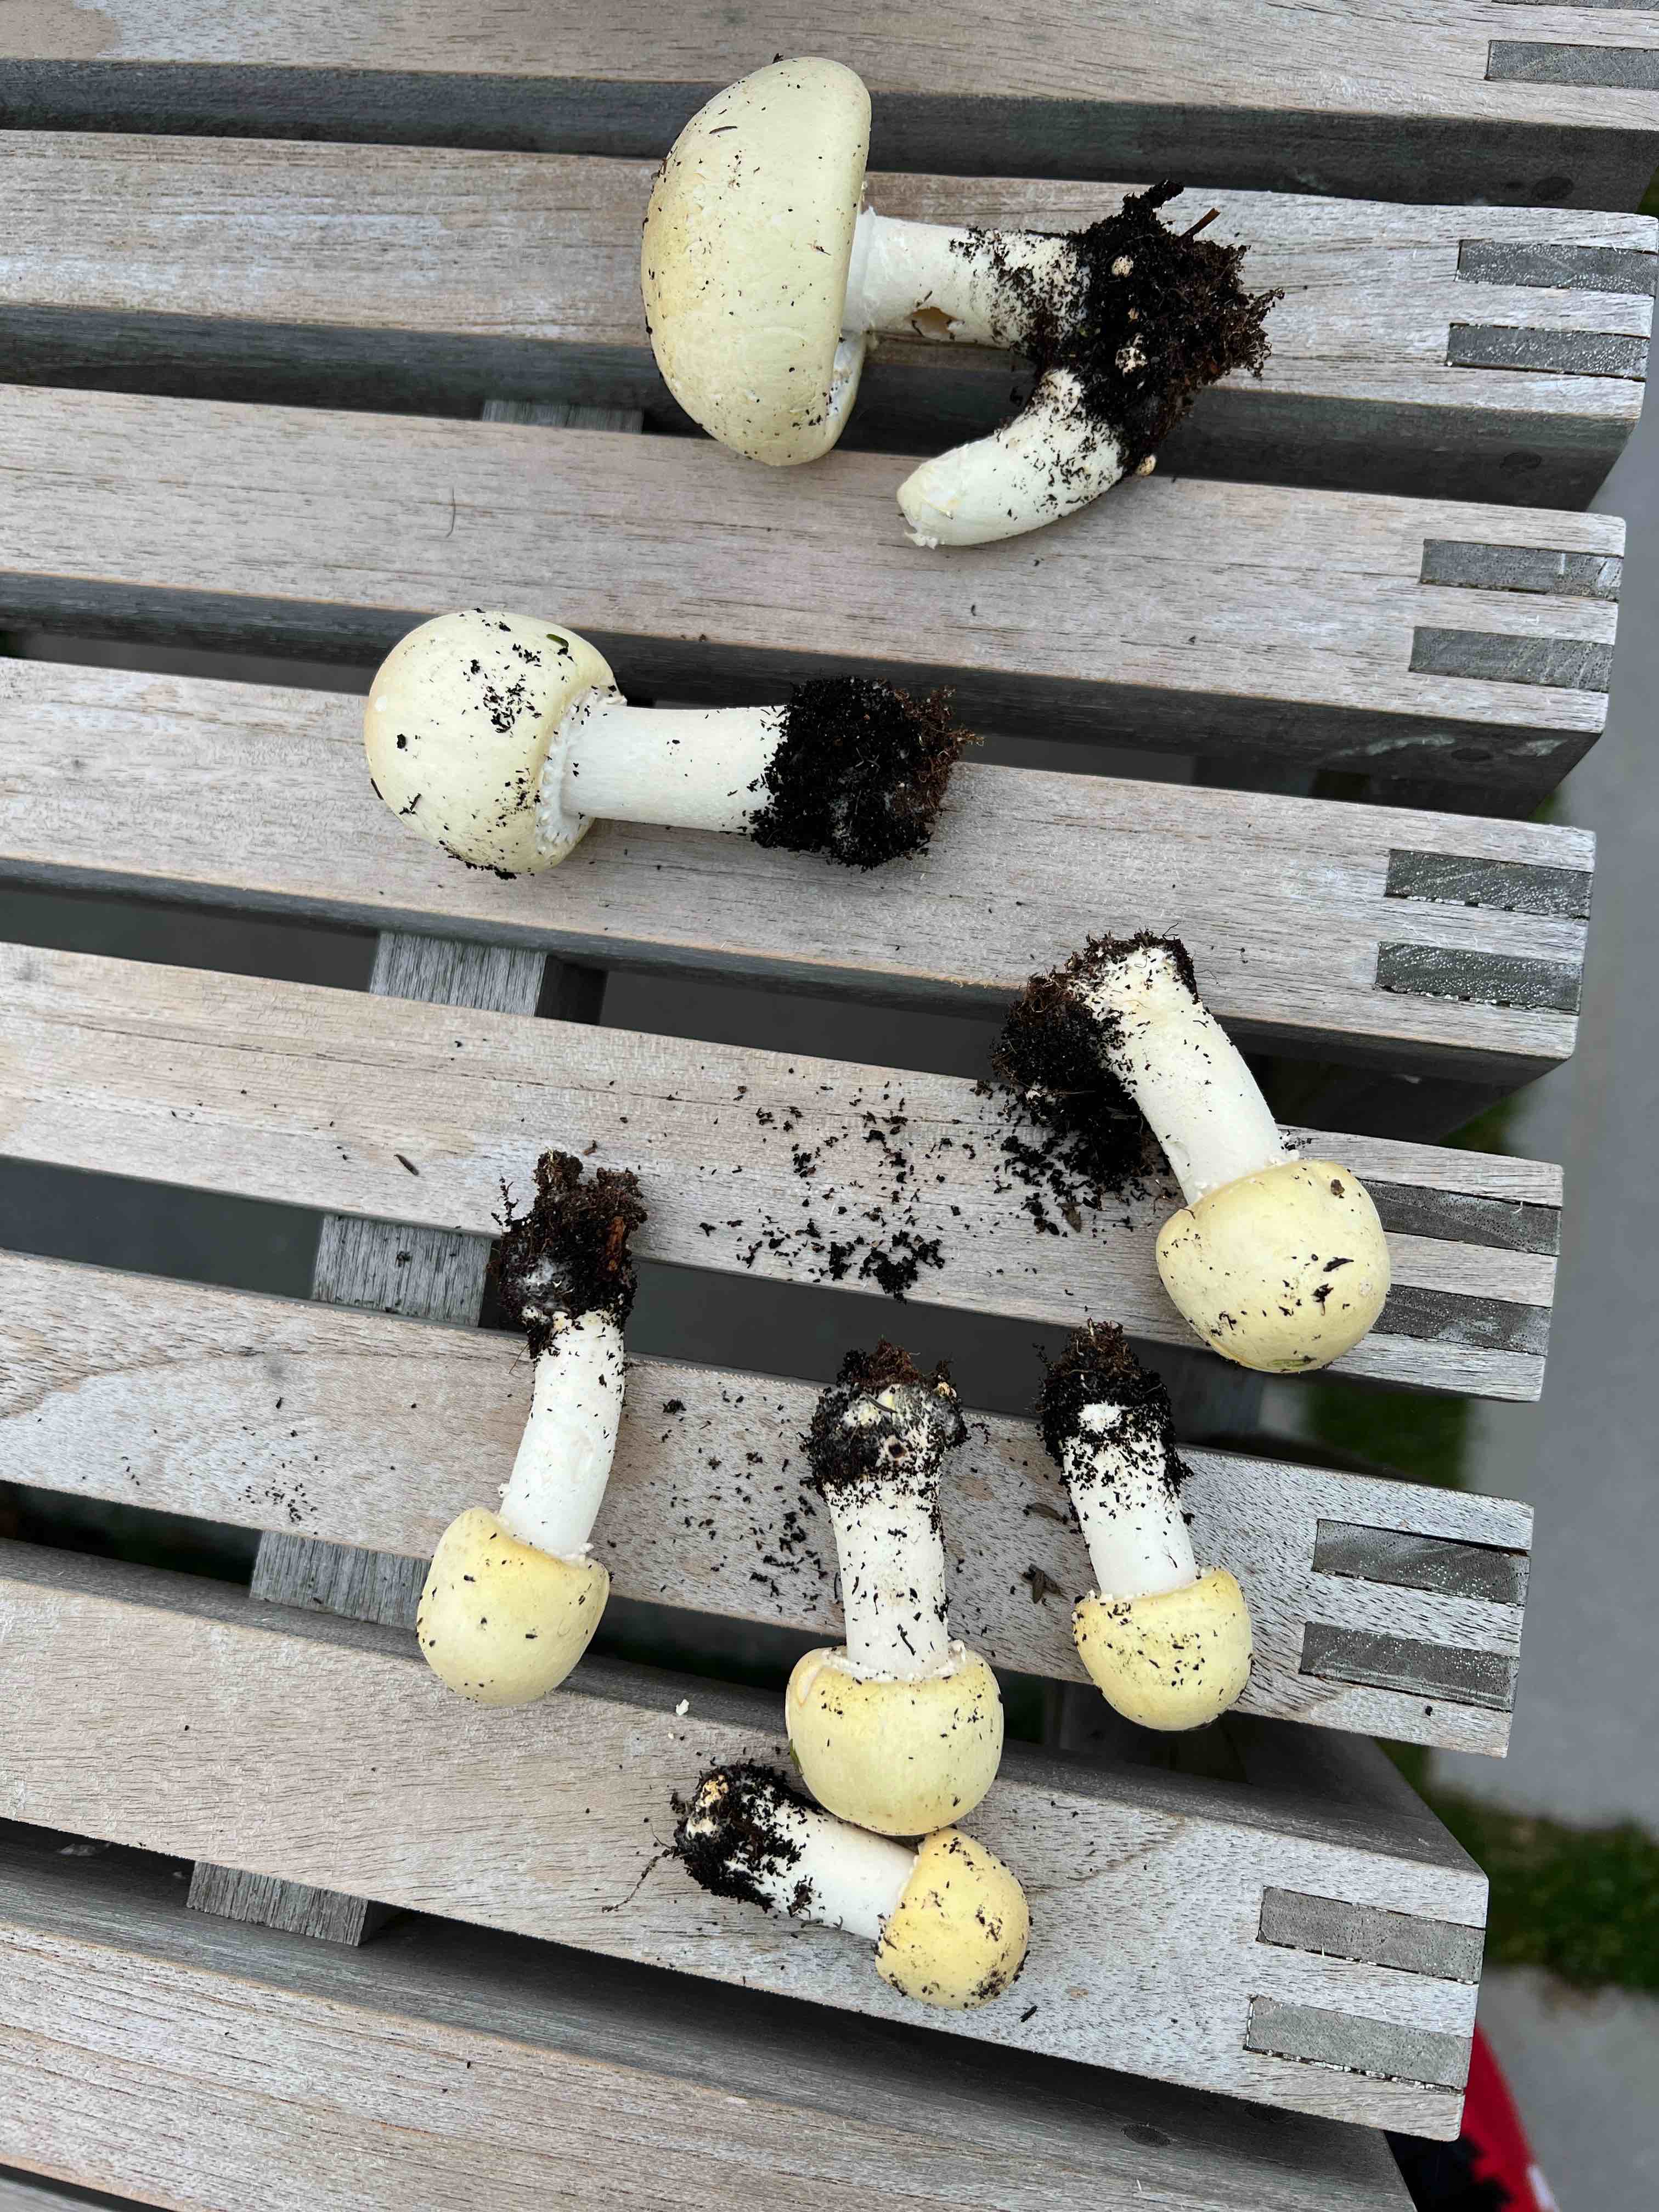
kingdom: Fungi
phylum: Basidiomycota
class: Agaricomycetes
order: Agaricales
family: Agaricaceae
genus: Agaricus
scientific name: Agaricus arvensis
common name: ager-champignon
